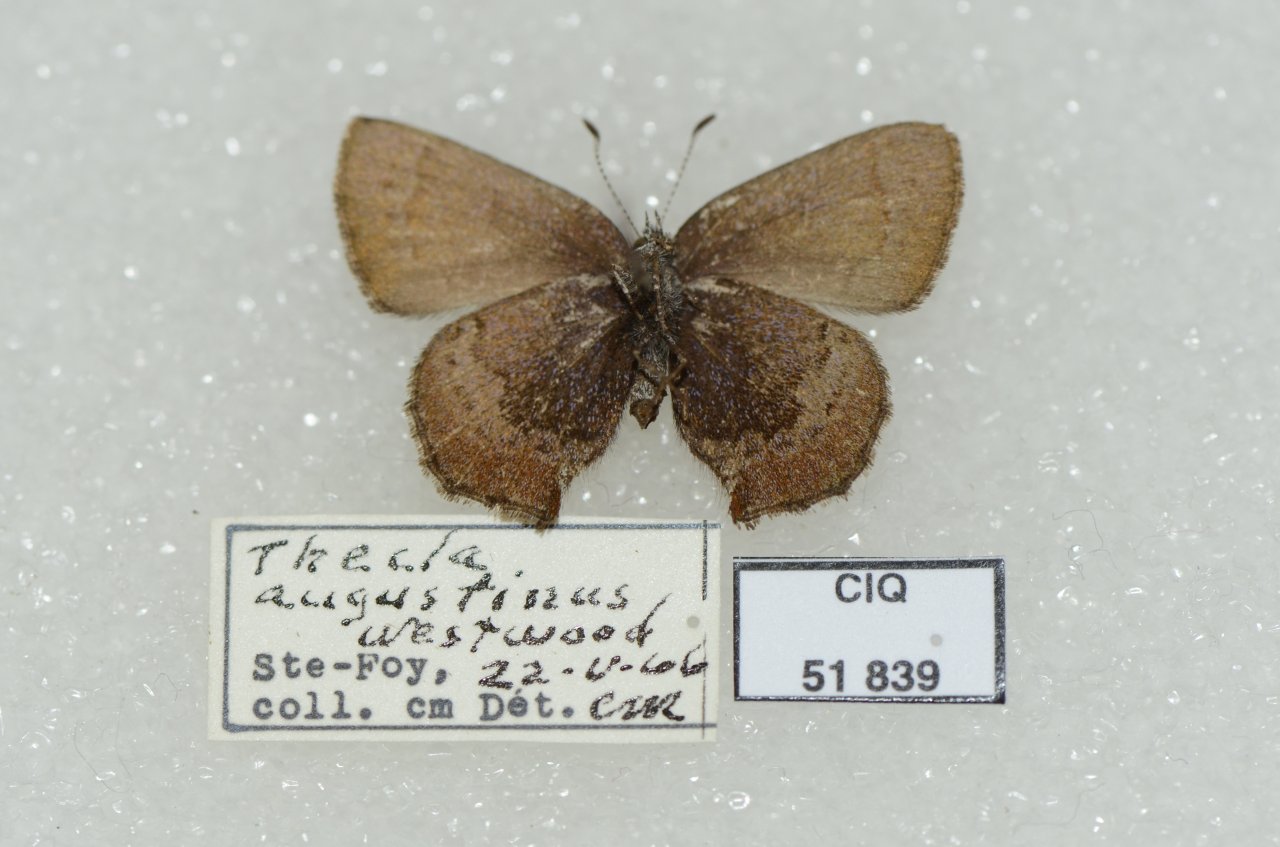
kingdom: Animalia
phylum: Arthropoda
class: Insecta
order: Lepidoptera
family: Lycaenidae
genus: Incisalia
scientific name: Incisalia irioides
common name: Brown Elfin
